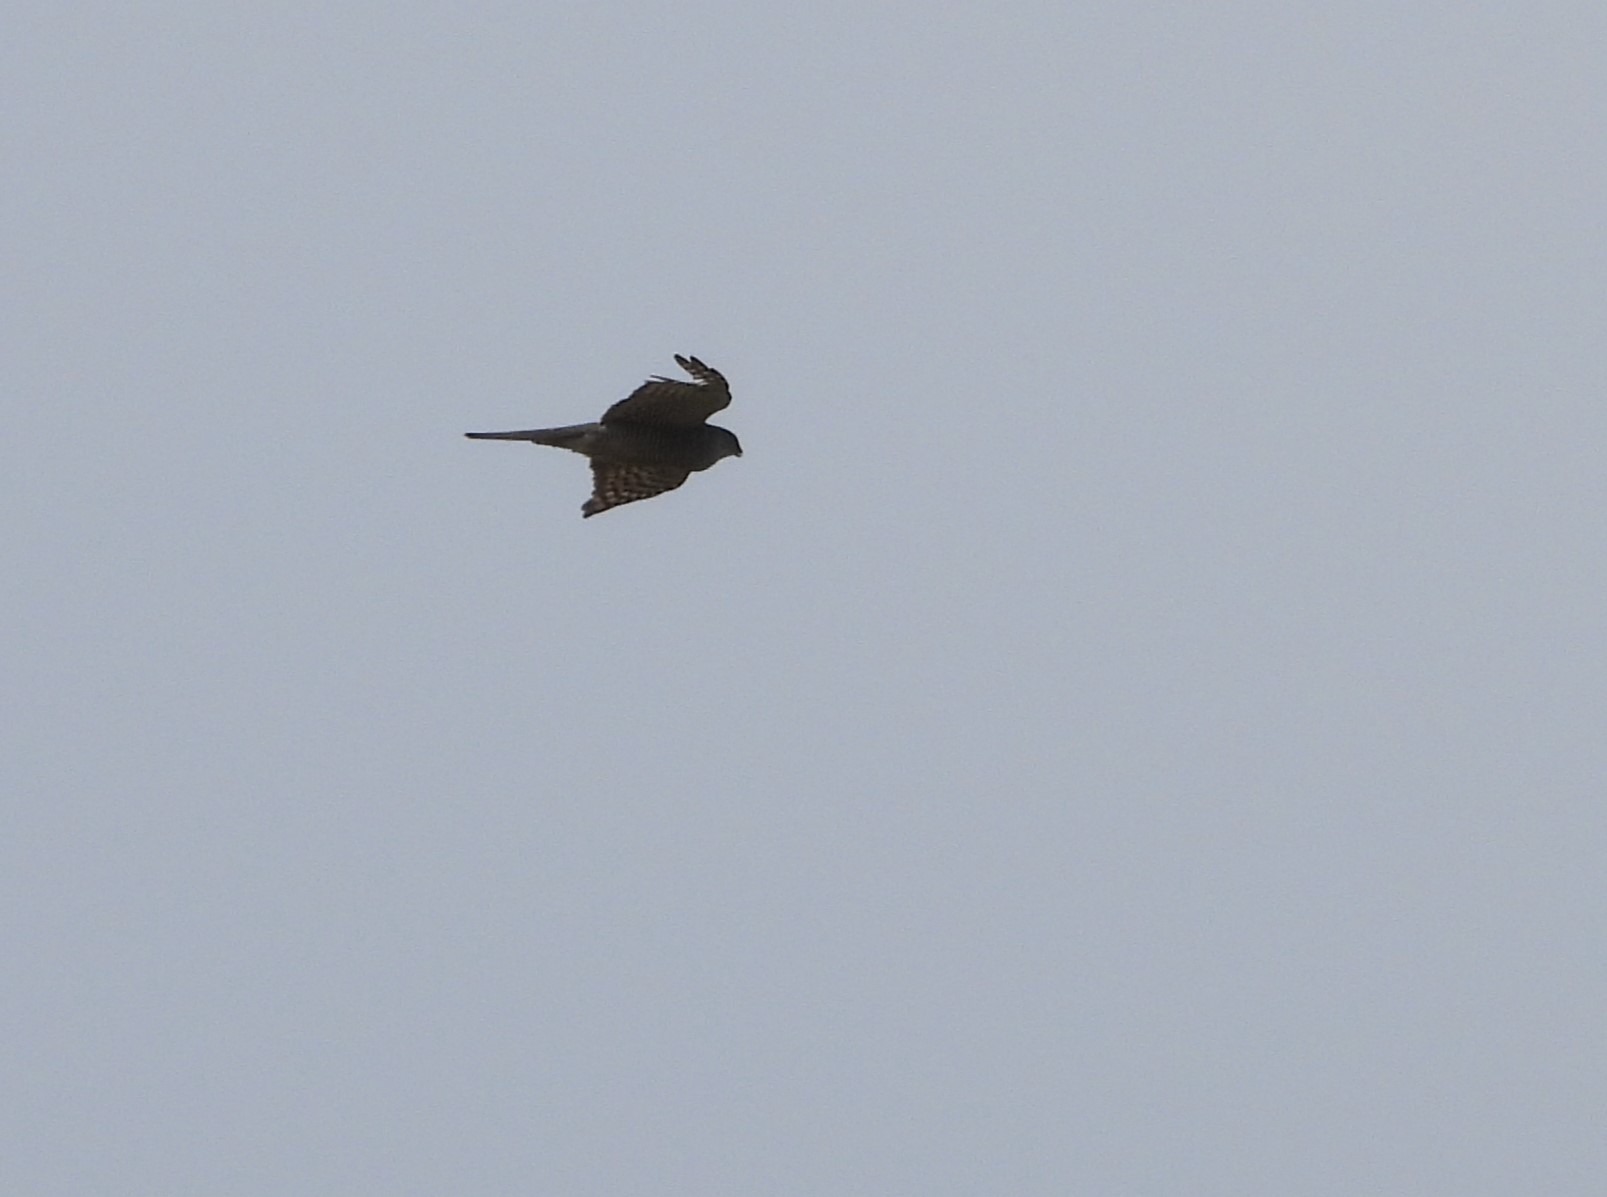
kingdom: Animalia
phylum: Chordata
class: Aves
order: Accipitriformes
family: Accipitridae
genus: Accipiter
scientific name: Accipiter nisus
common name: Spurvehøg
